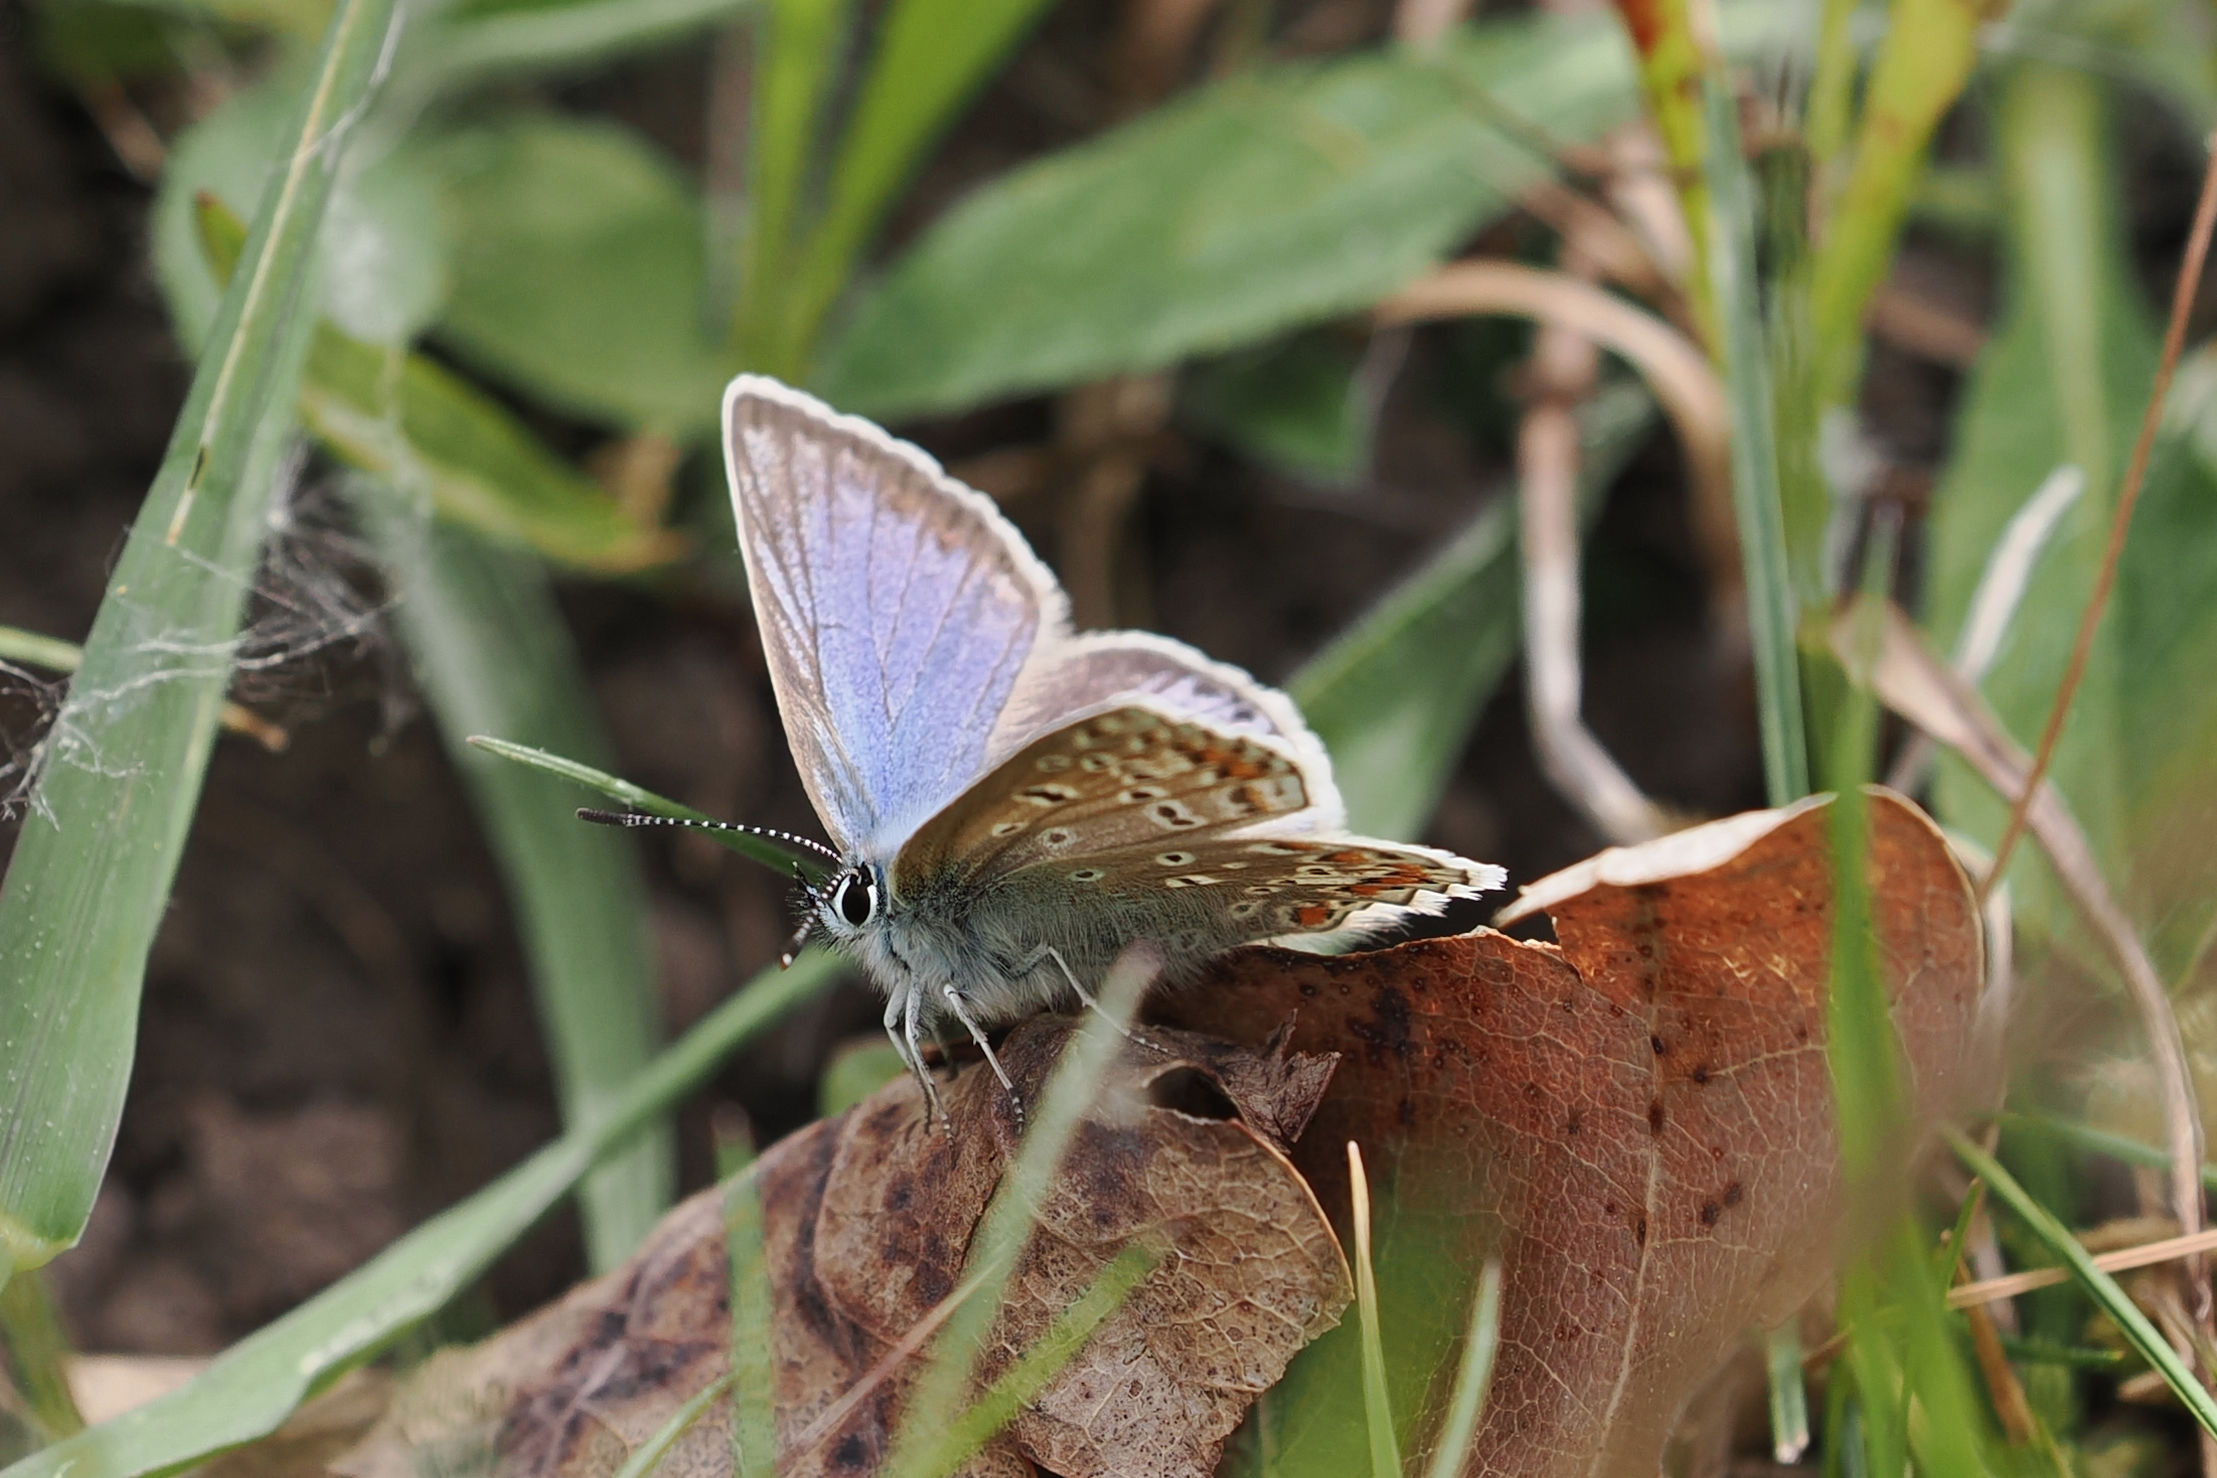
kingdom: Animalia
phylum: Arthropoda
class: Insecta
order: Lepidoptera
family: Lycaenidae
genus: Polyommatus
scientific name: Polyommatus icarus
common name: Almindelig blåfugl
